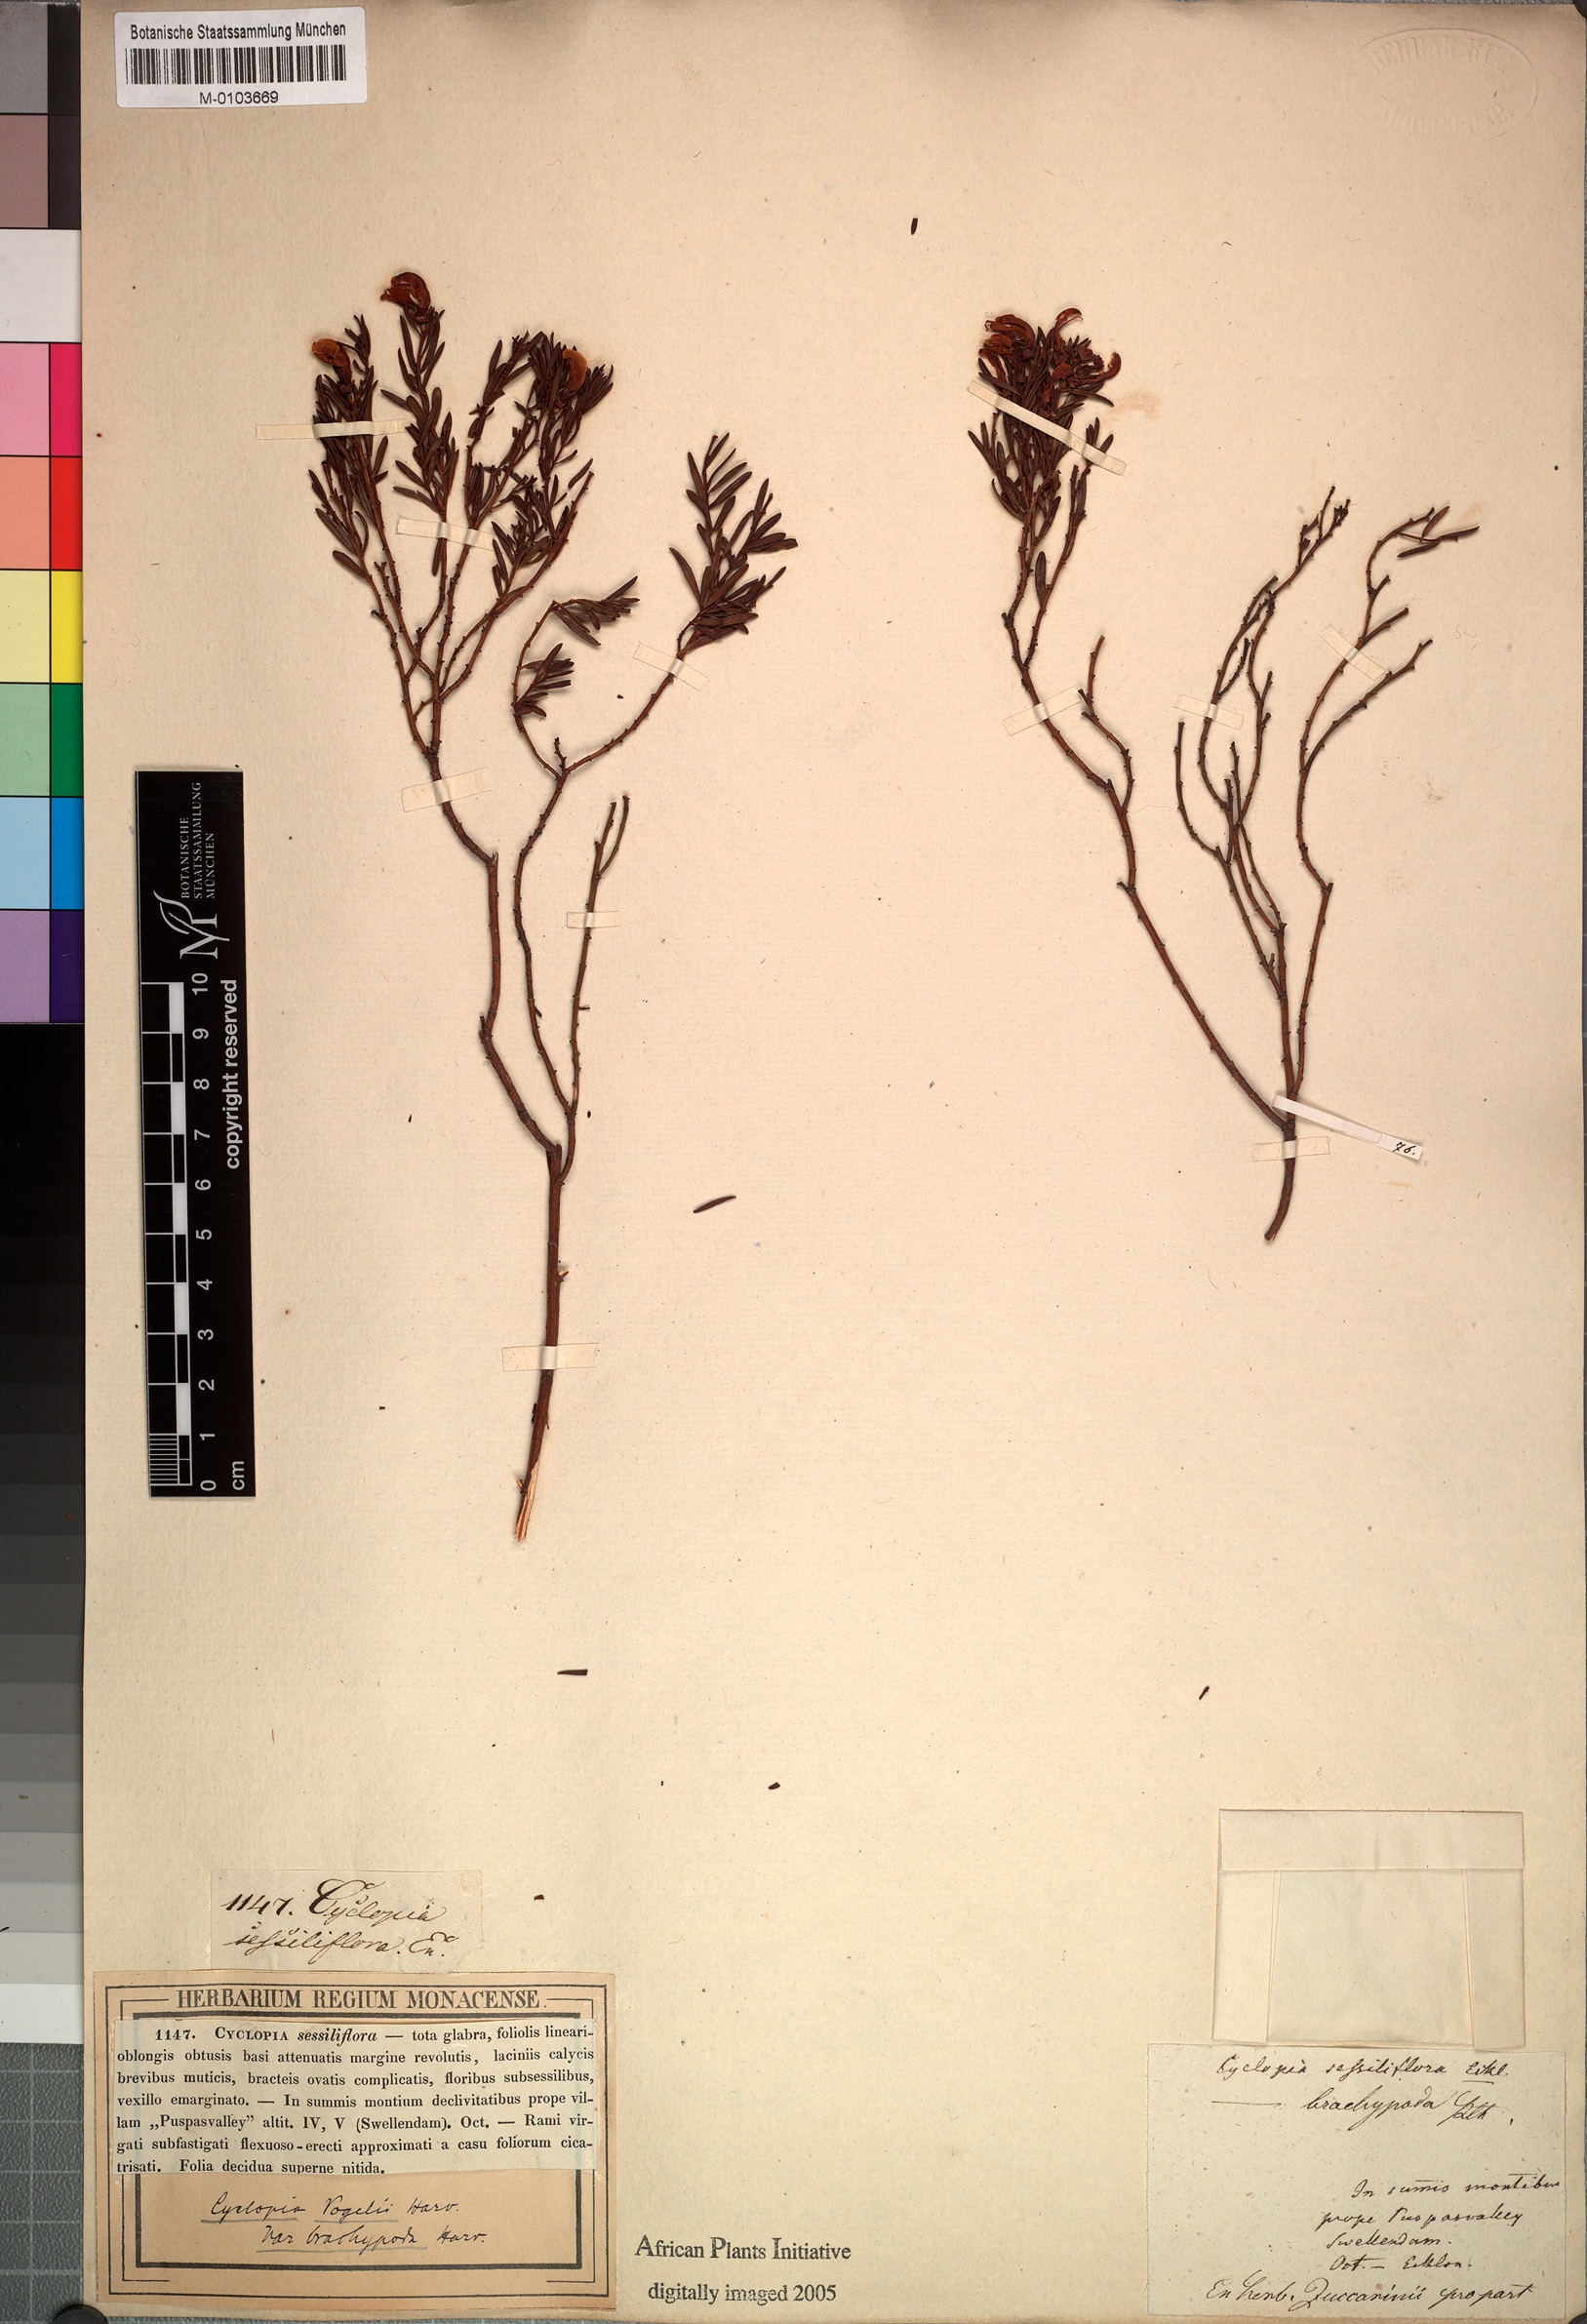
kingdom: Plantae
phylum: Tracheophyta
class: Magnoliopsida
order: Fabales
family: Fabaceae
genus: Cyclopia
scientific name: Cyclopia sessiliflora
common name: Heidelberg tea
